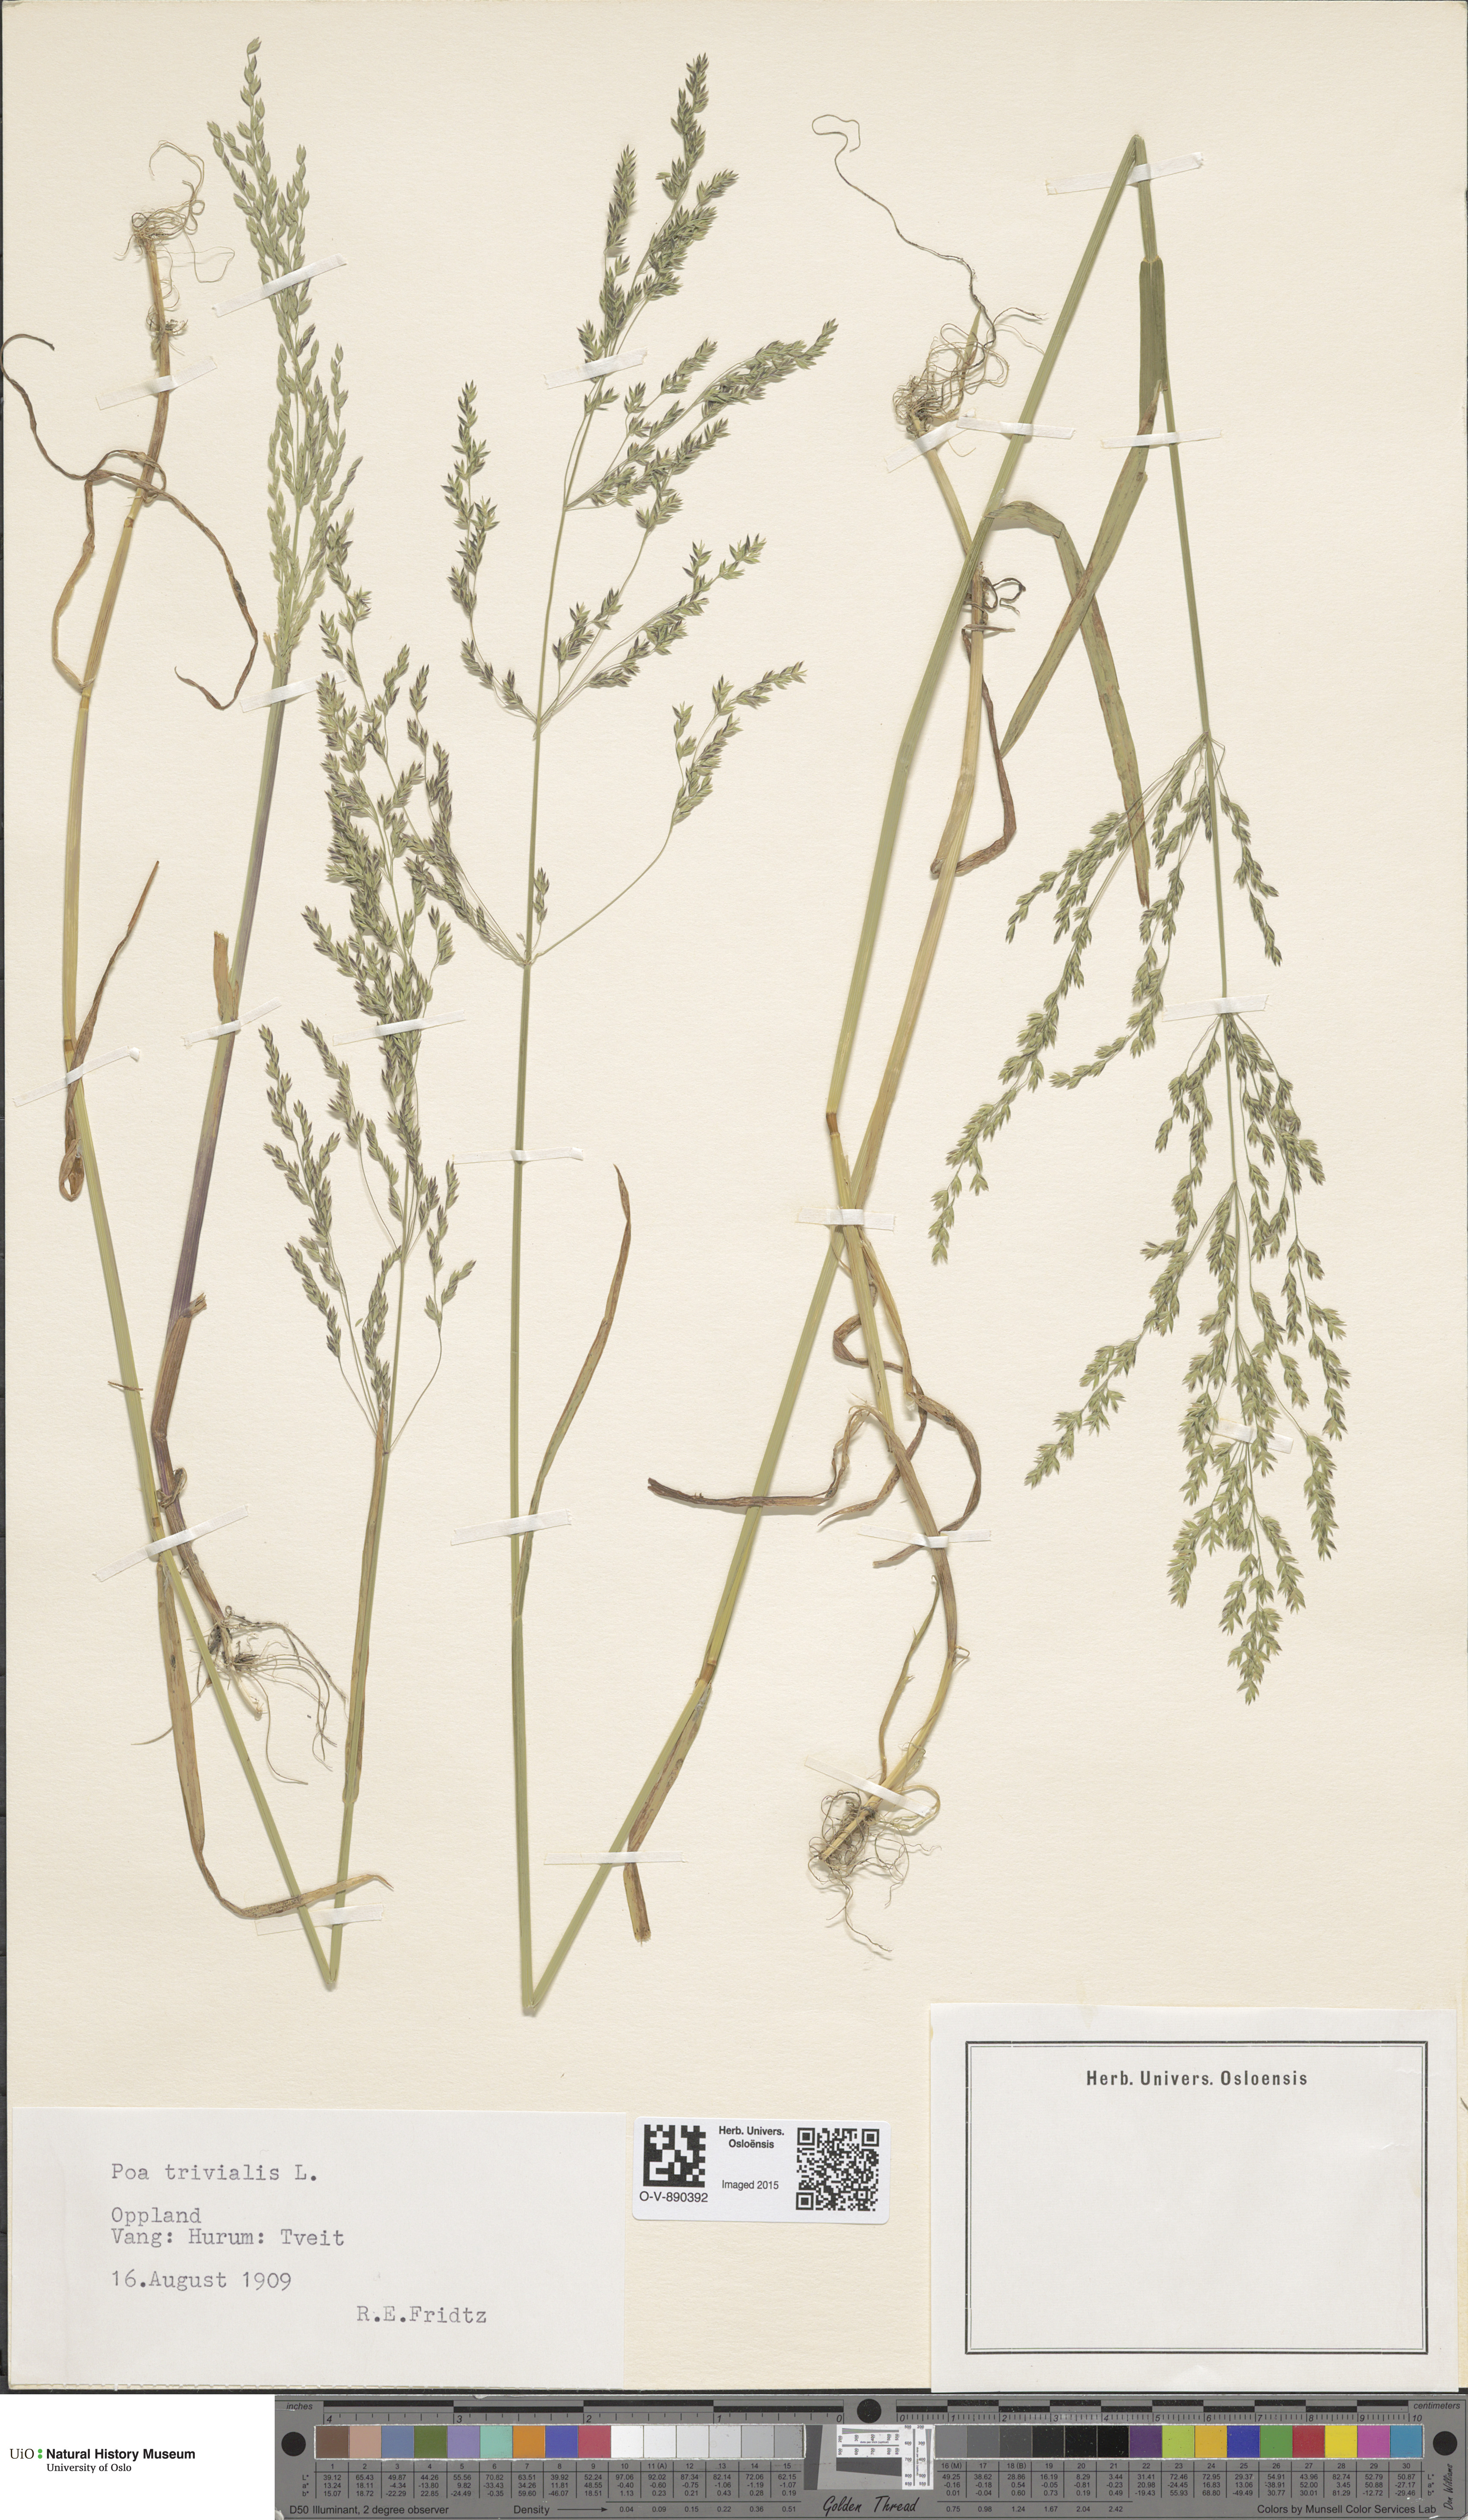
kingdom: Plantae
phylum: Tracheophyta
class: Liliopsida
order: Poales
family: Poaceae
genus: Poa
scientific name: Poa trivialis
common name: Rough bluegrass
